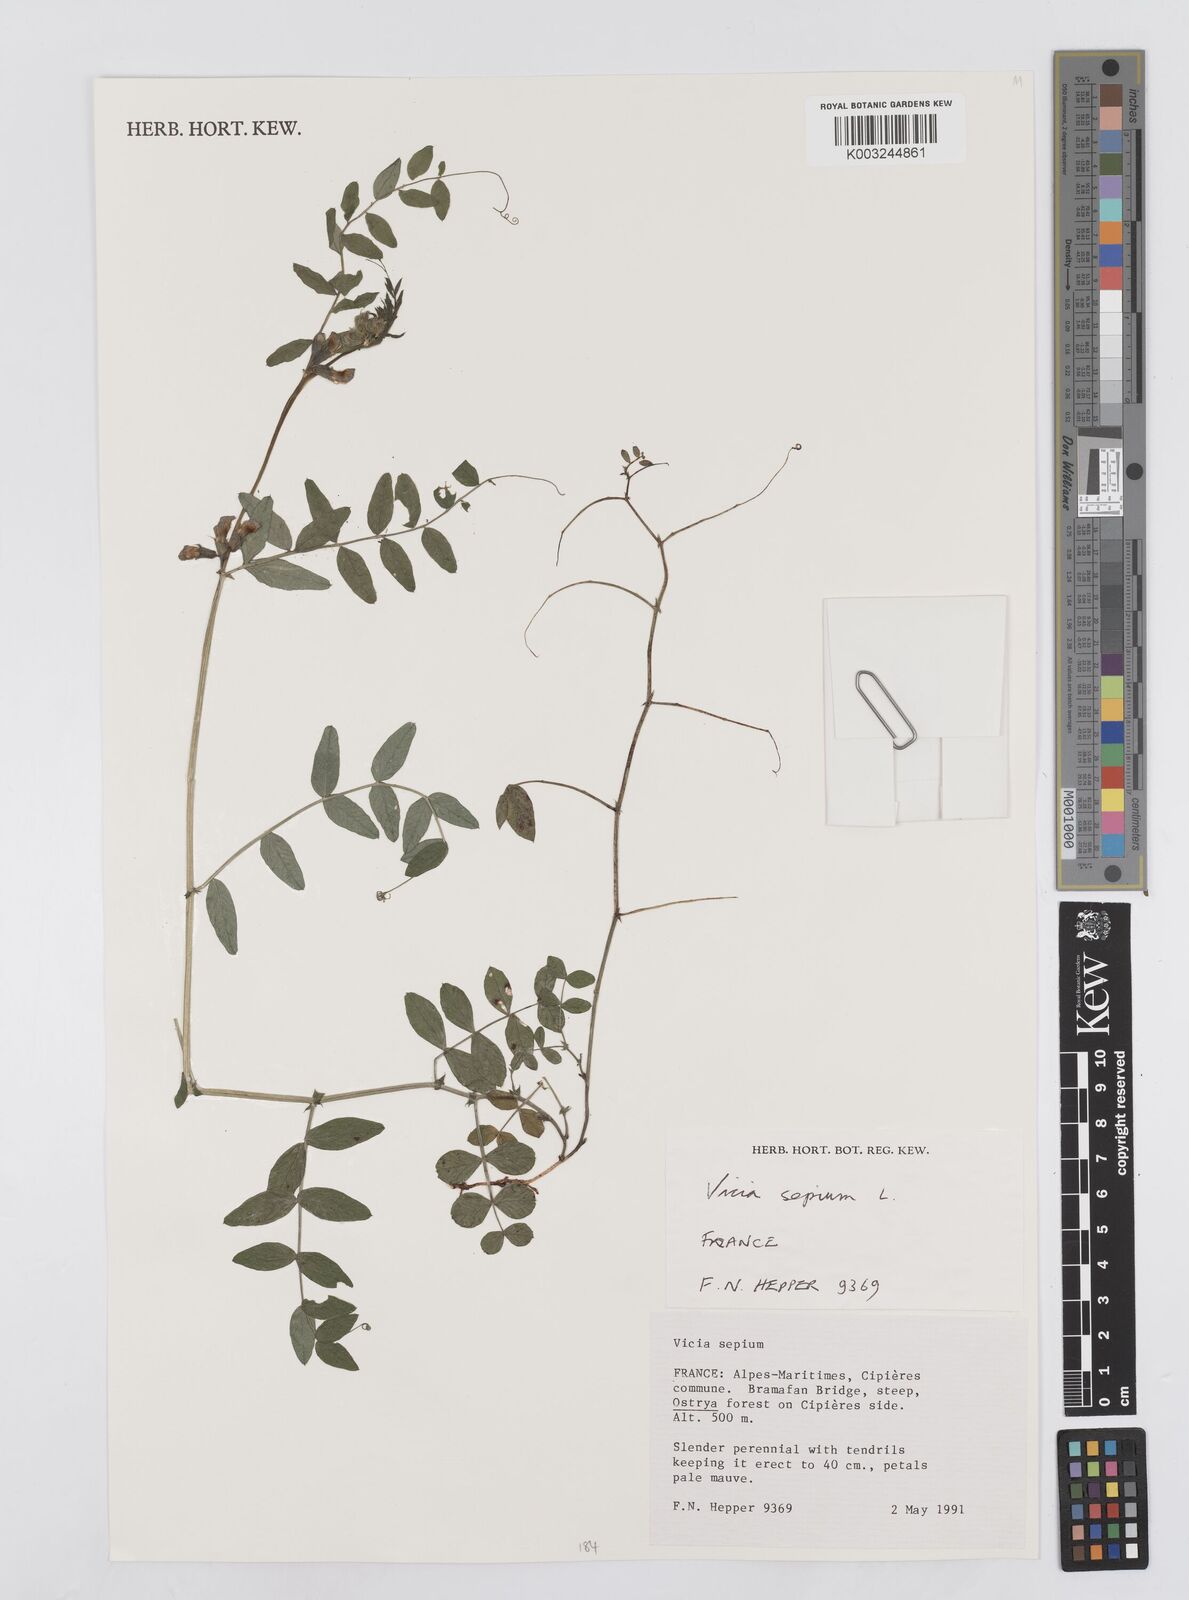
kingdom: Plantae
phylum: Tracheophyta
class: Magnoliopsida
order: Fabales
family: Fabaceae
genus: Vicia
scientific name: Vicia sepium
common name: Bush vetch
